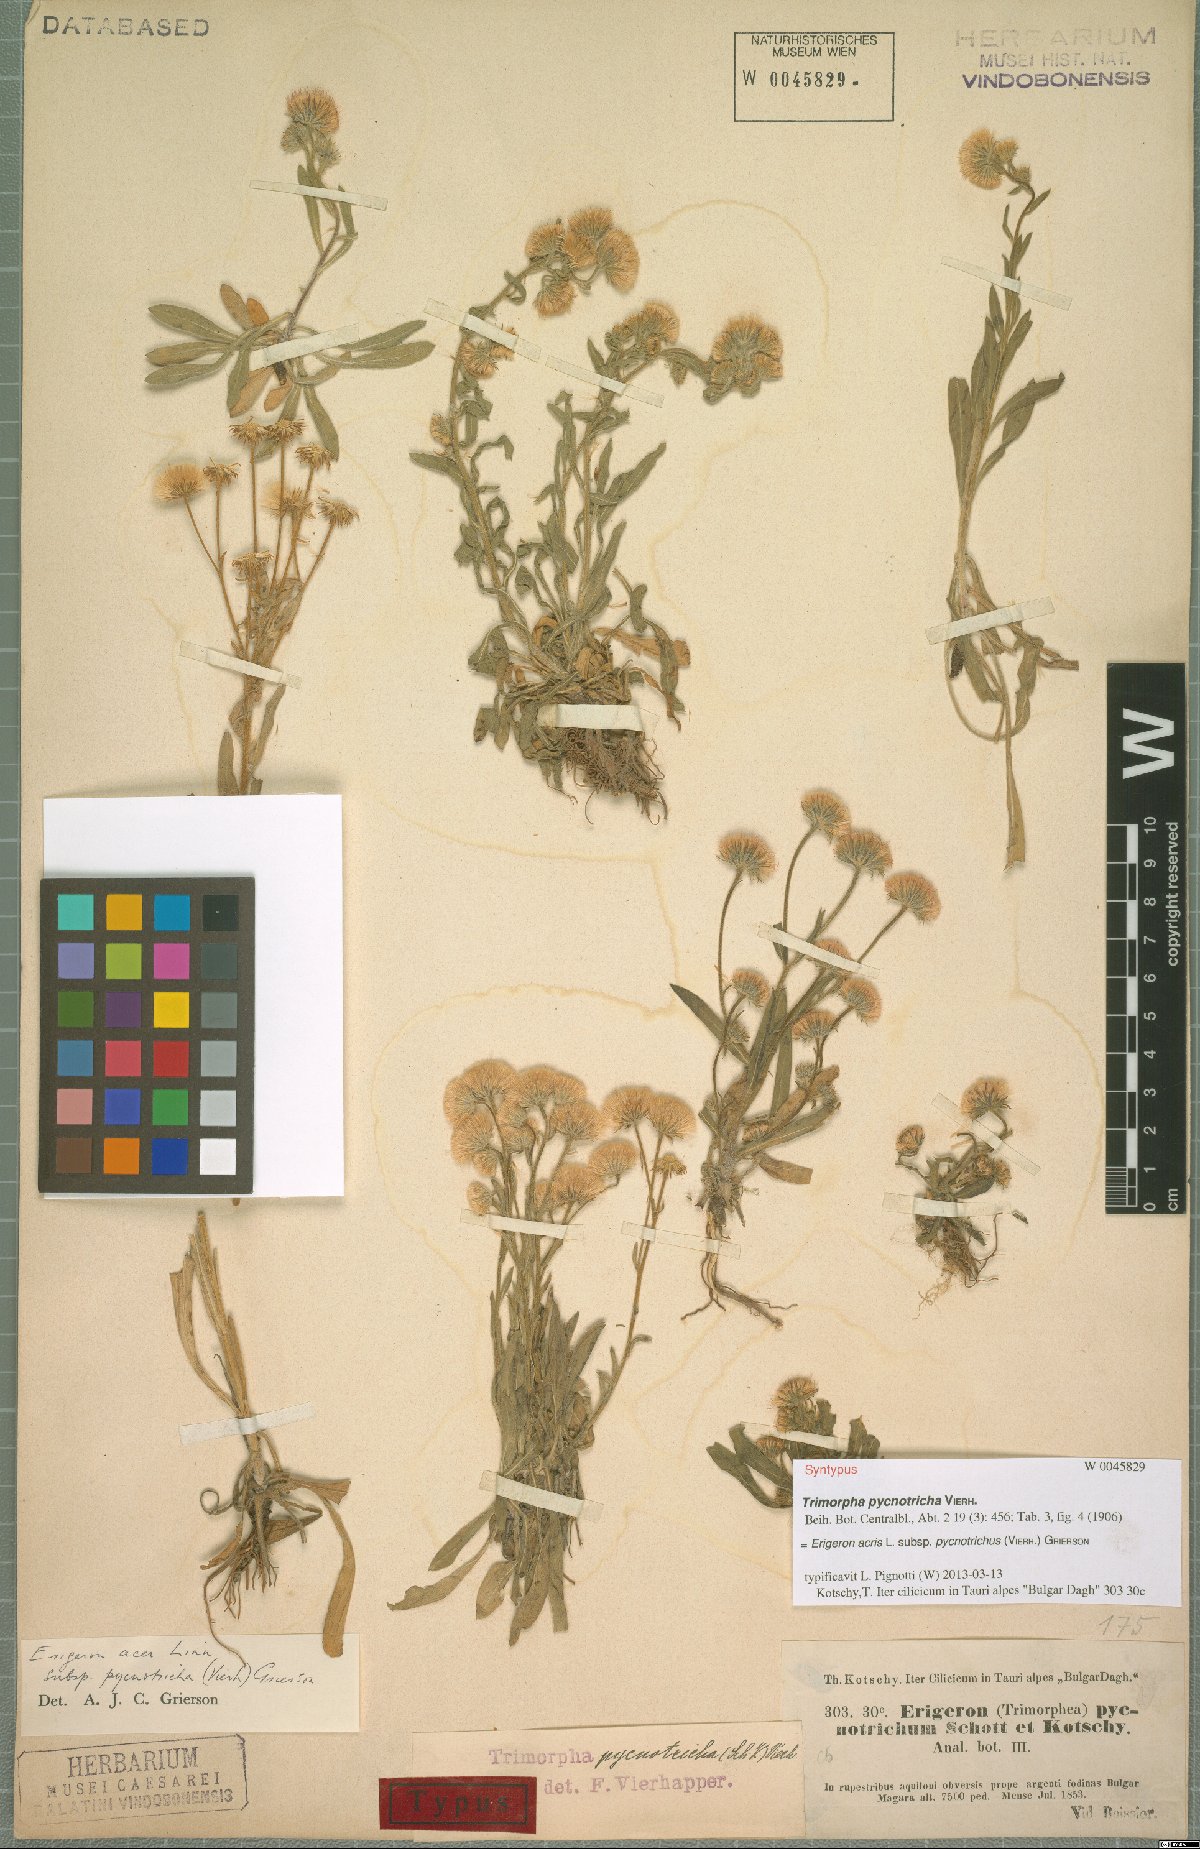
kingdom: Plantae
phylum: Tracheophyta
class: Magnoliopsida
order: Asterales
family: Asteraceae
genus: Erigeron
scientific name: Erigeron acris
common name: Blue fleabane
